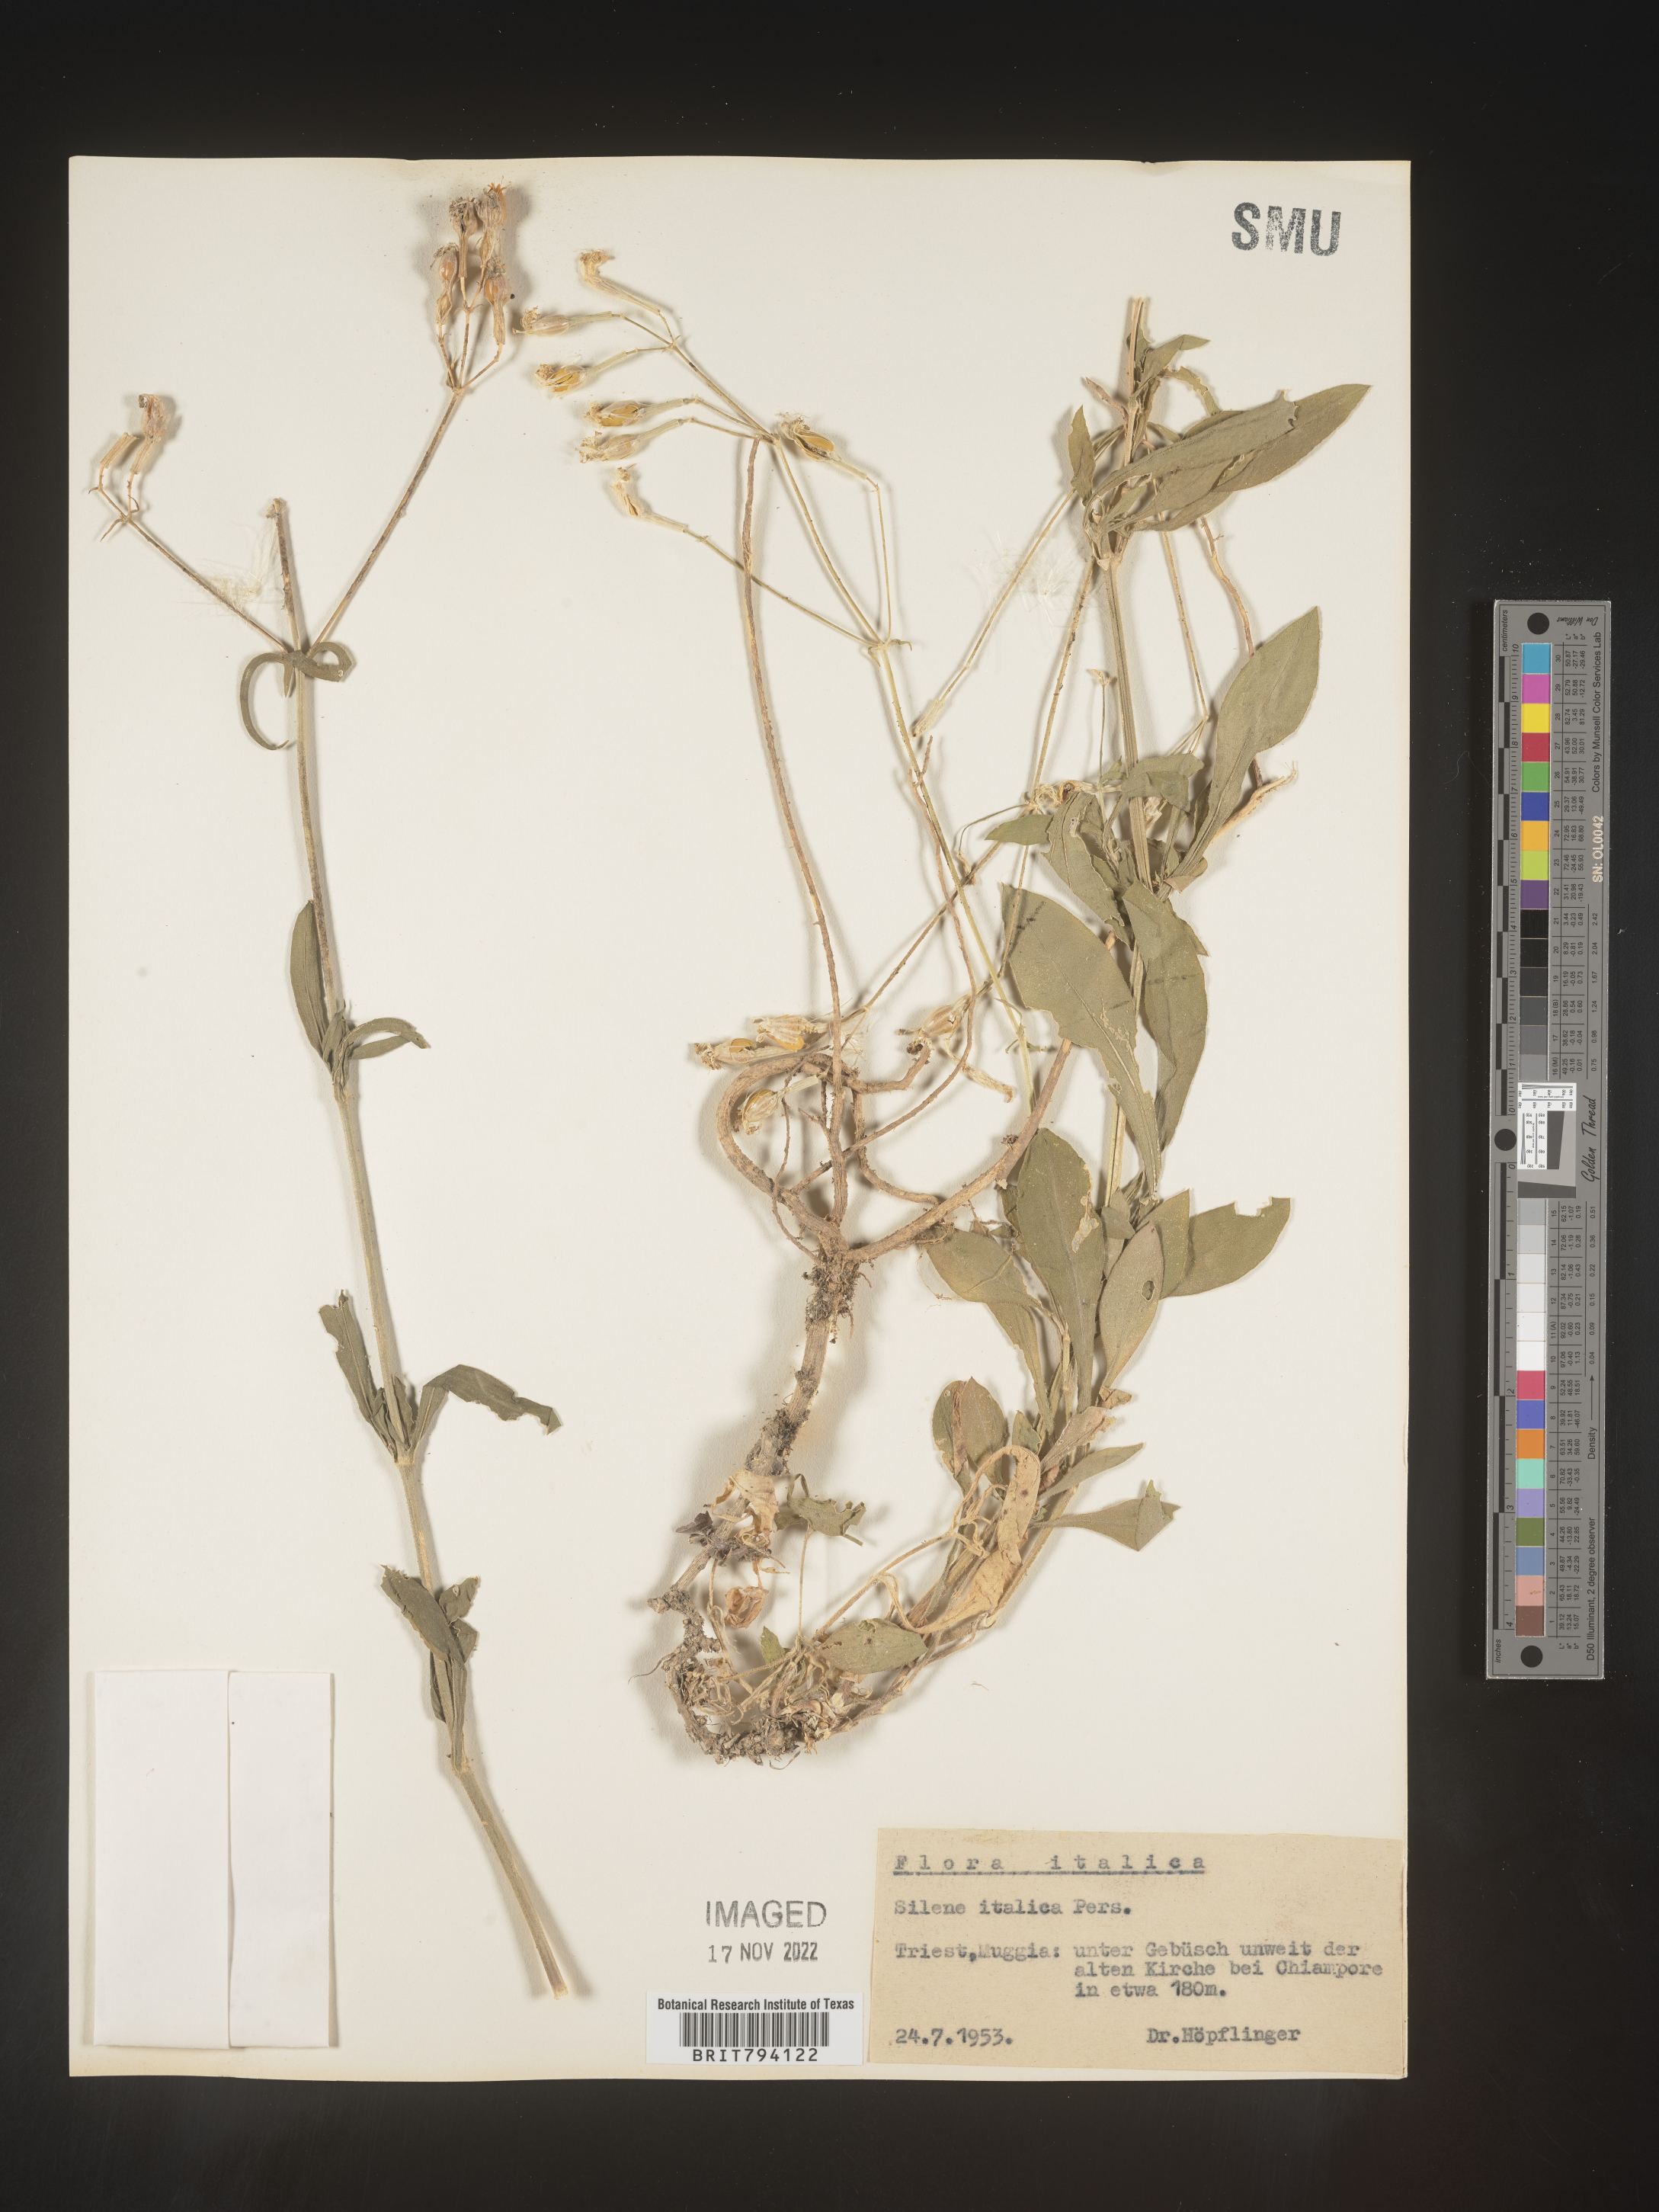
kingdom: Plantae
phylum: Tracheophyta
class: Magnoliopsida
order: Caryophyllales
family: Caryophyllaceae
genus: Silene
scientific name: Silene italica
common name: Italian catchfly
